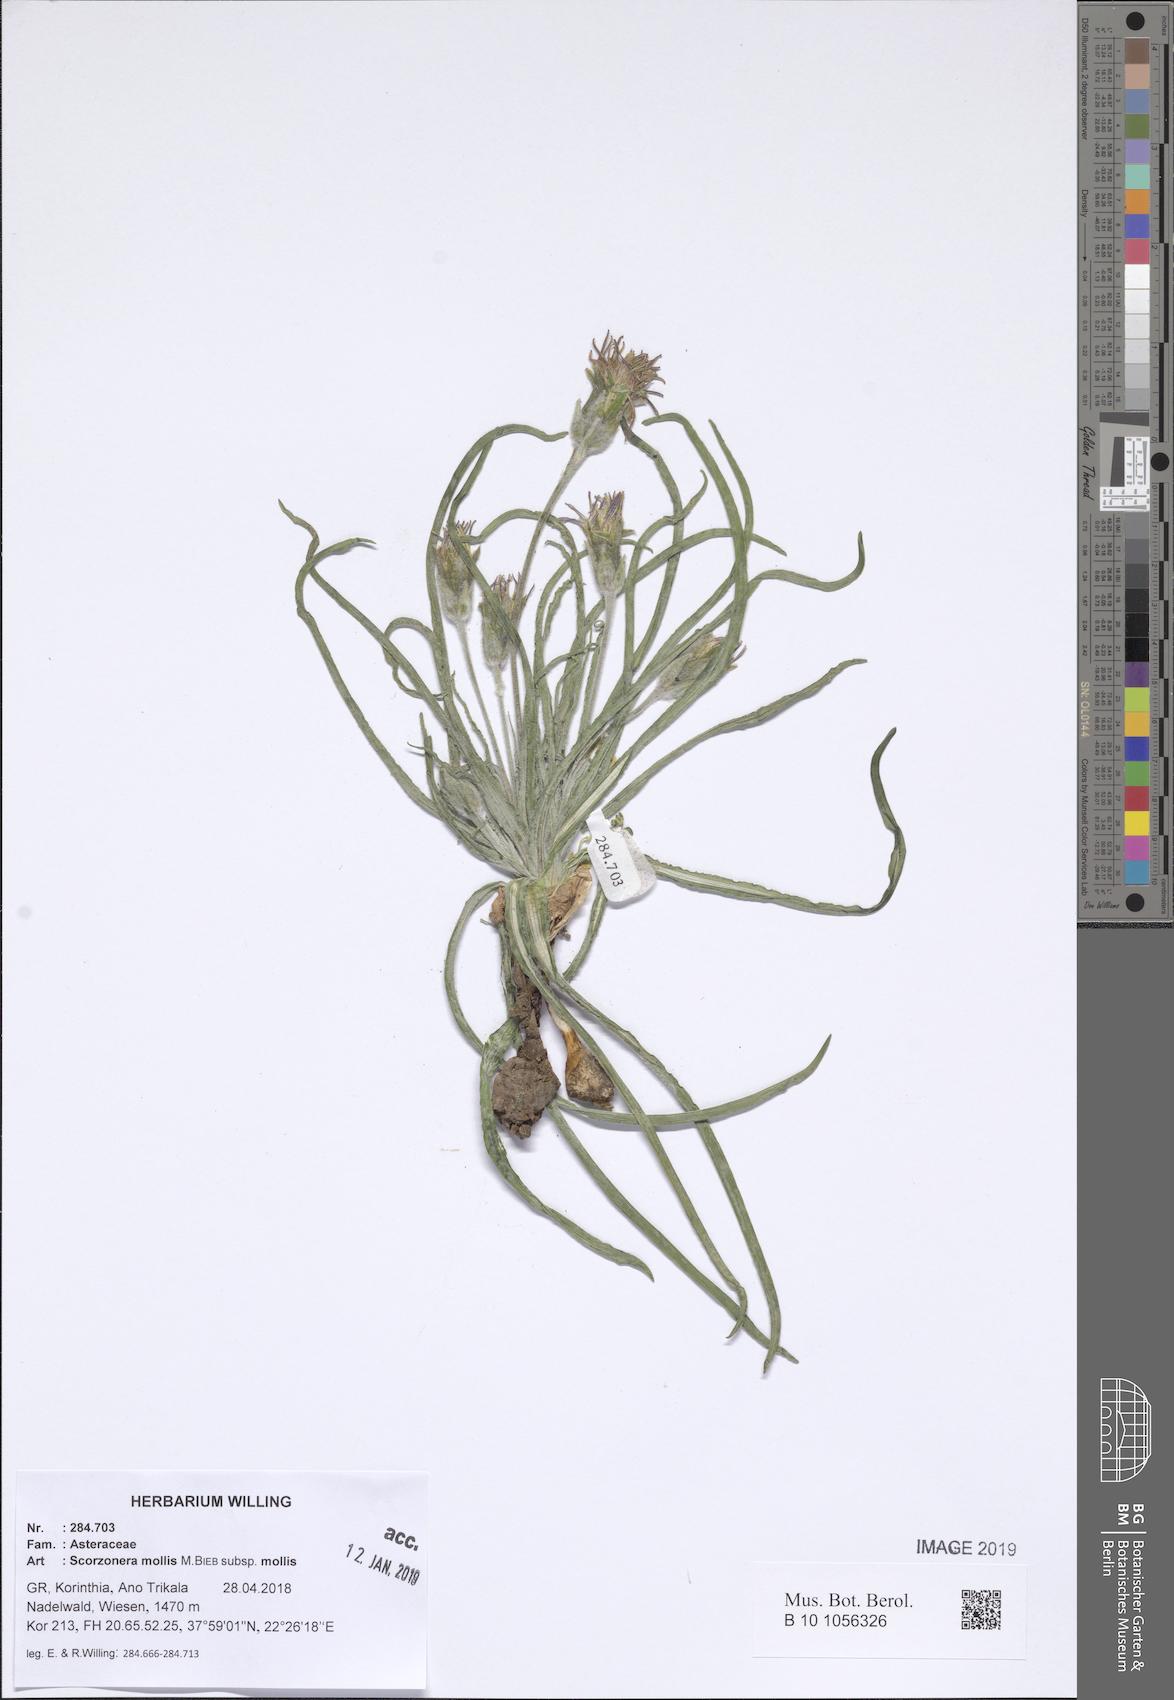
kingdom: Plantae
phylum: Tracheophyta
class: Magnoliopsida
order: Asterales
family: Asteraceae
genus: Candollea
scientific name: Candollea mollis
